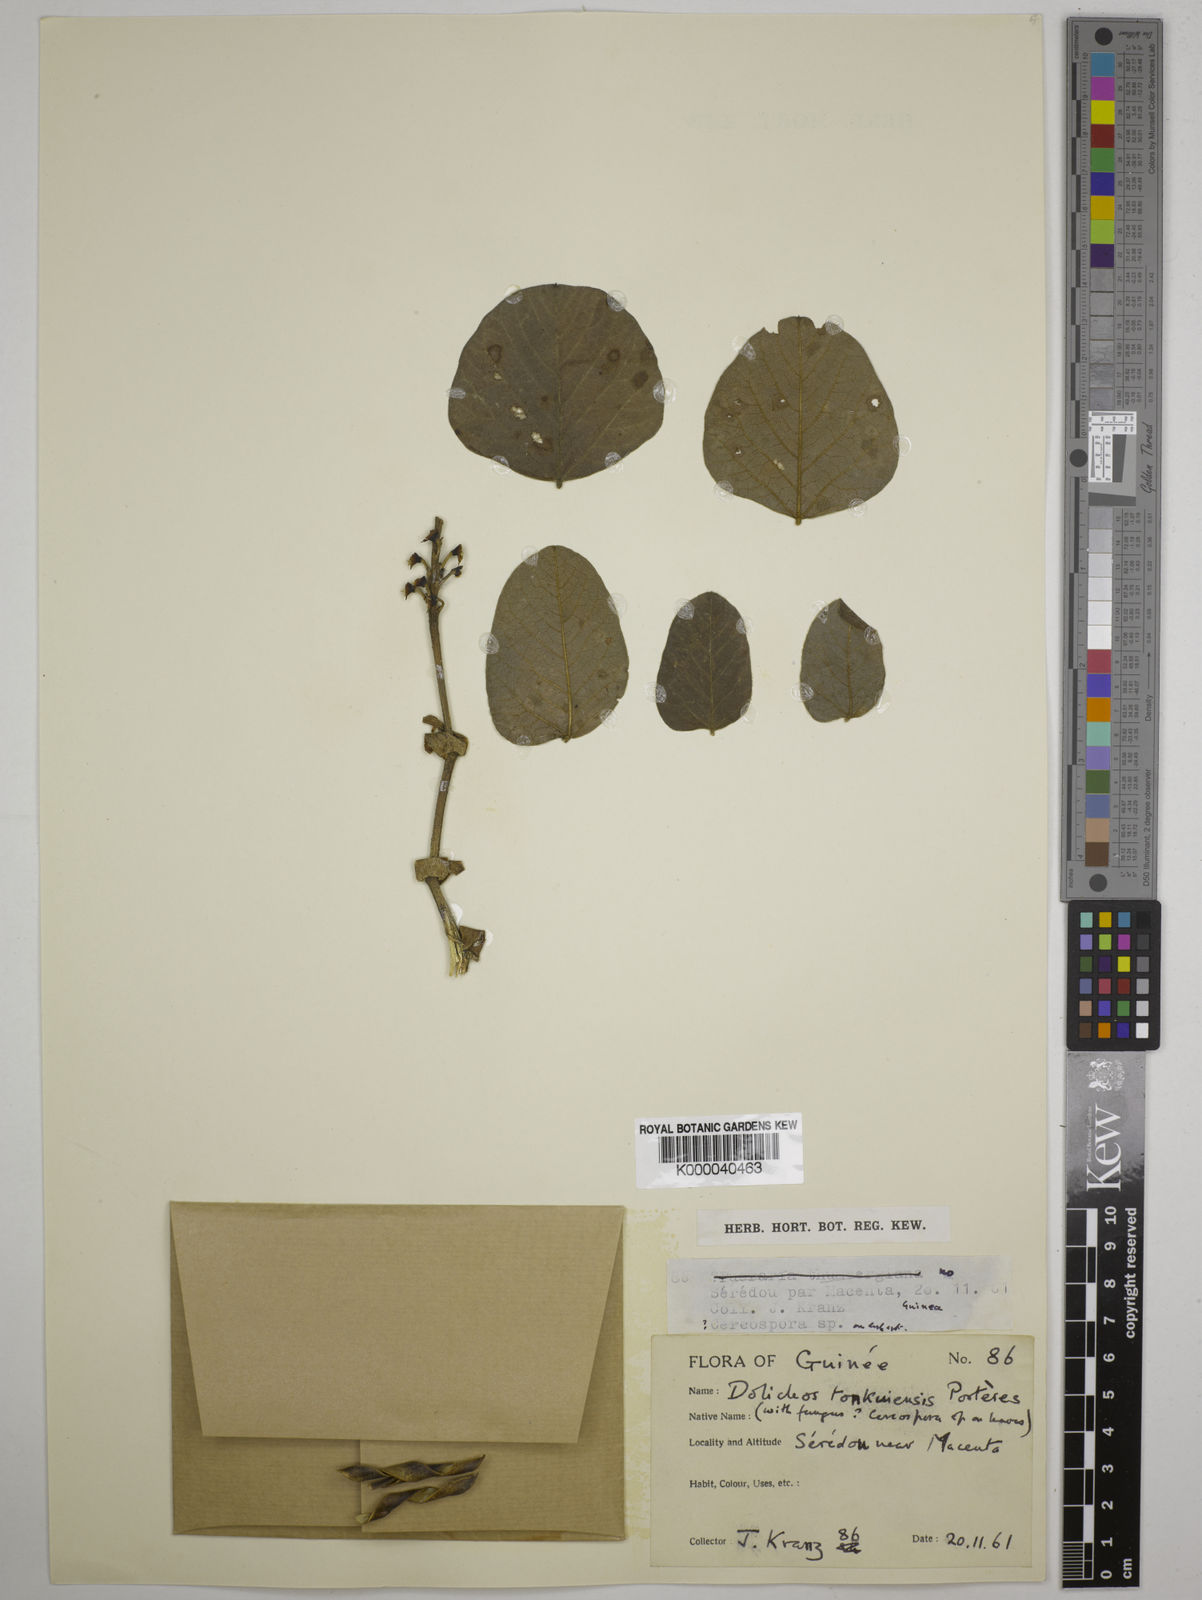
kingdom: Plantae
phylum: Tracheophyta
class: Magnoliopsida
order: Fabales
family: Fabaceae
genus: Dolichos
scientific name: Dolichos tonkouiensis
